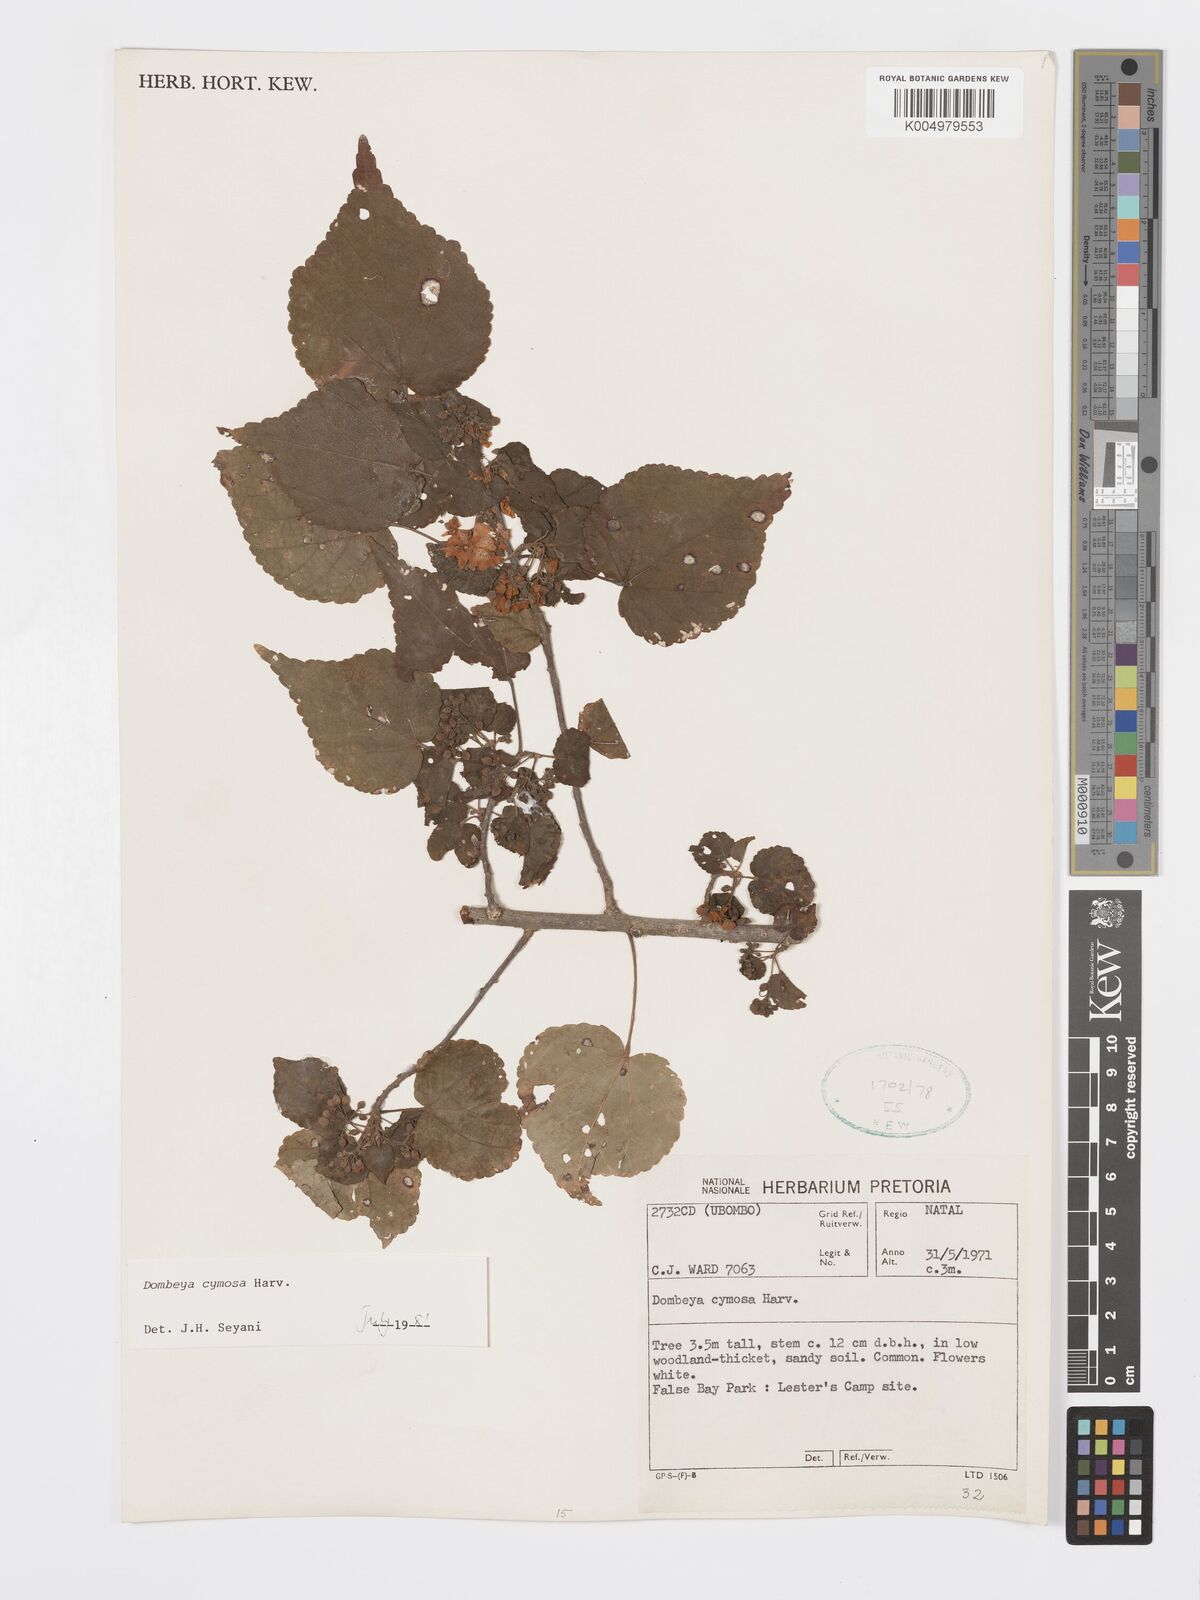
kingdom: Plantae
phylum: Tracheophyta
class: Magnoliopsida
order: Malvales
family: Malvaceae
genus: Dombeya
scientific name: Dombeya cymosa
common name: Hairless dombeya
